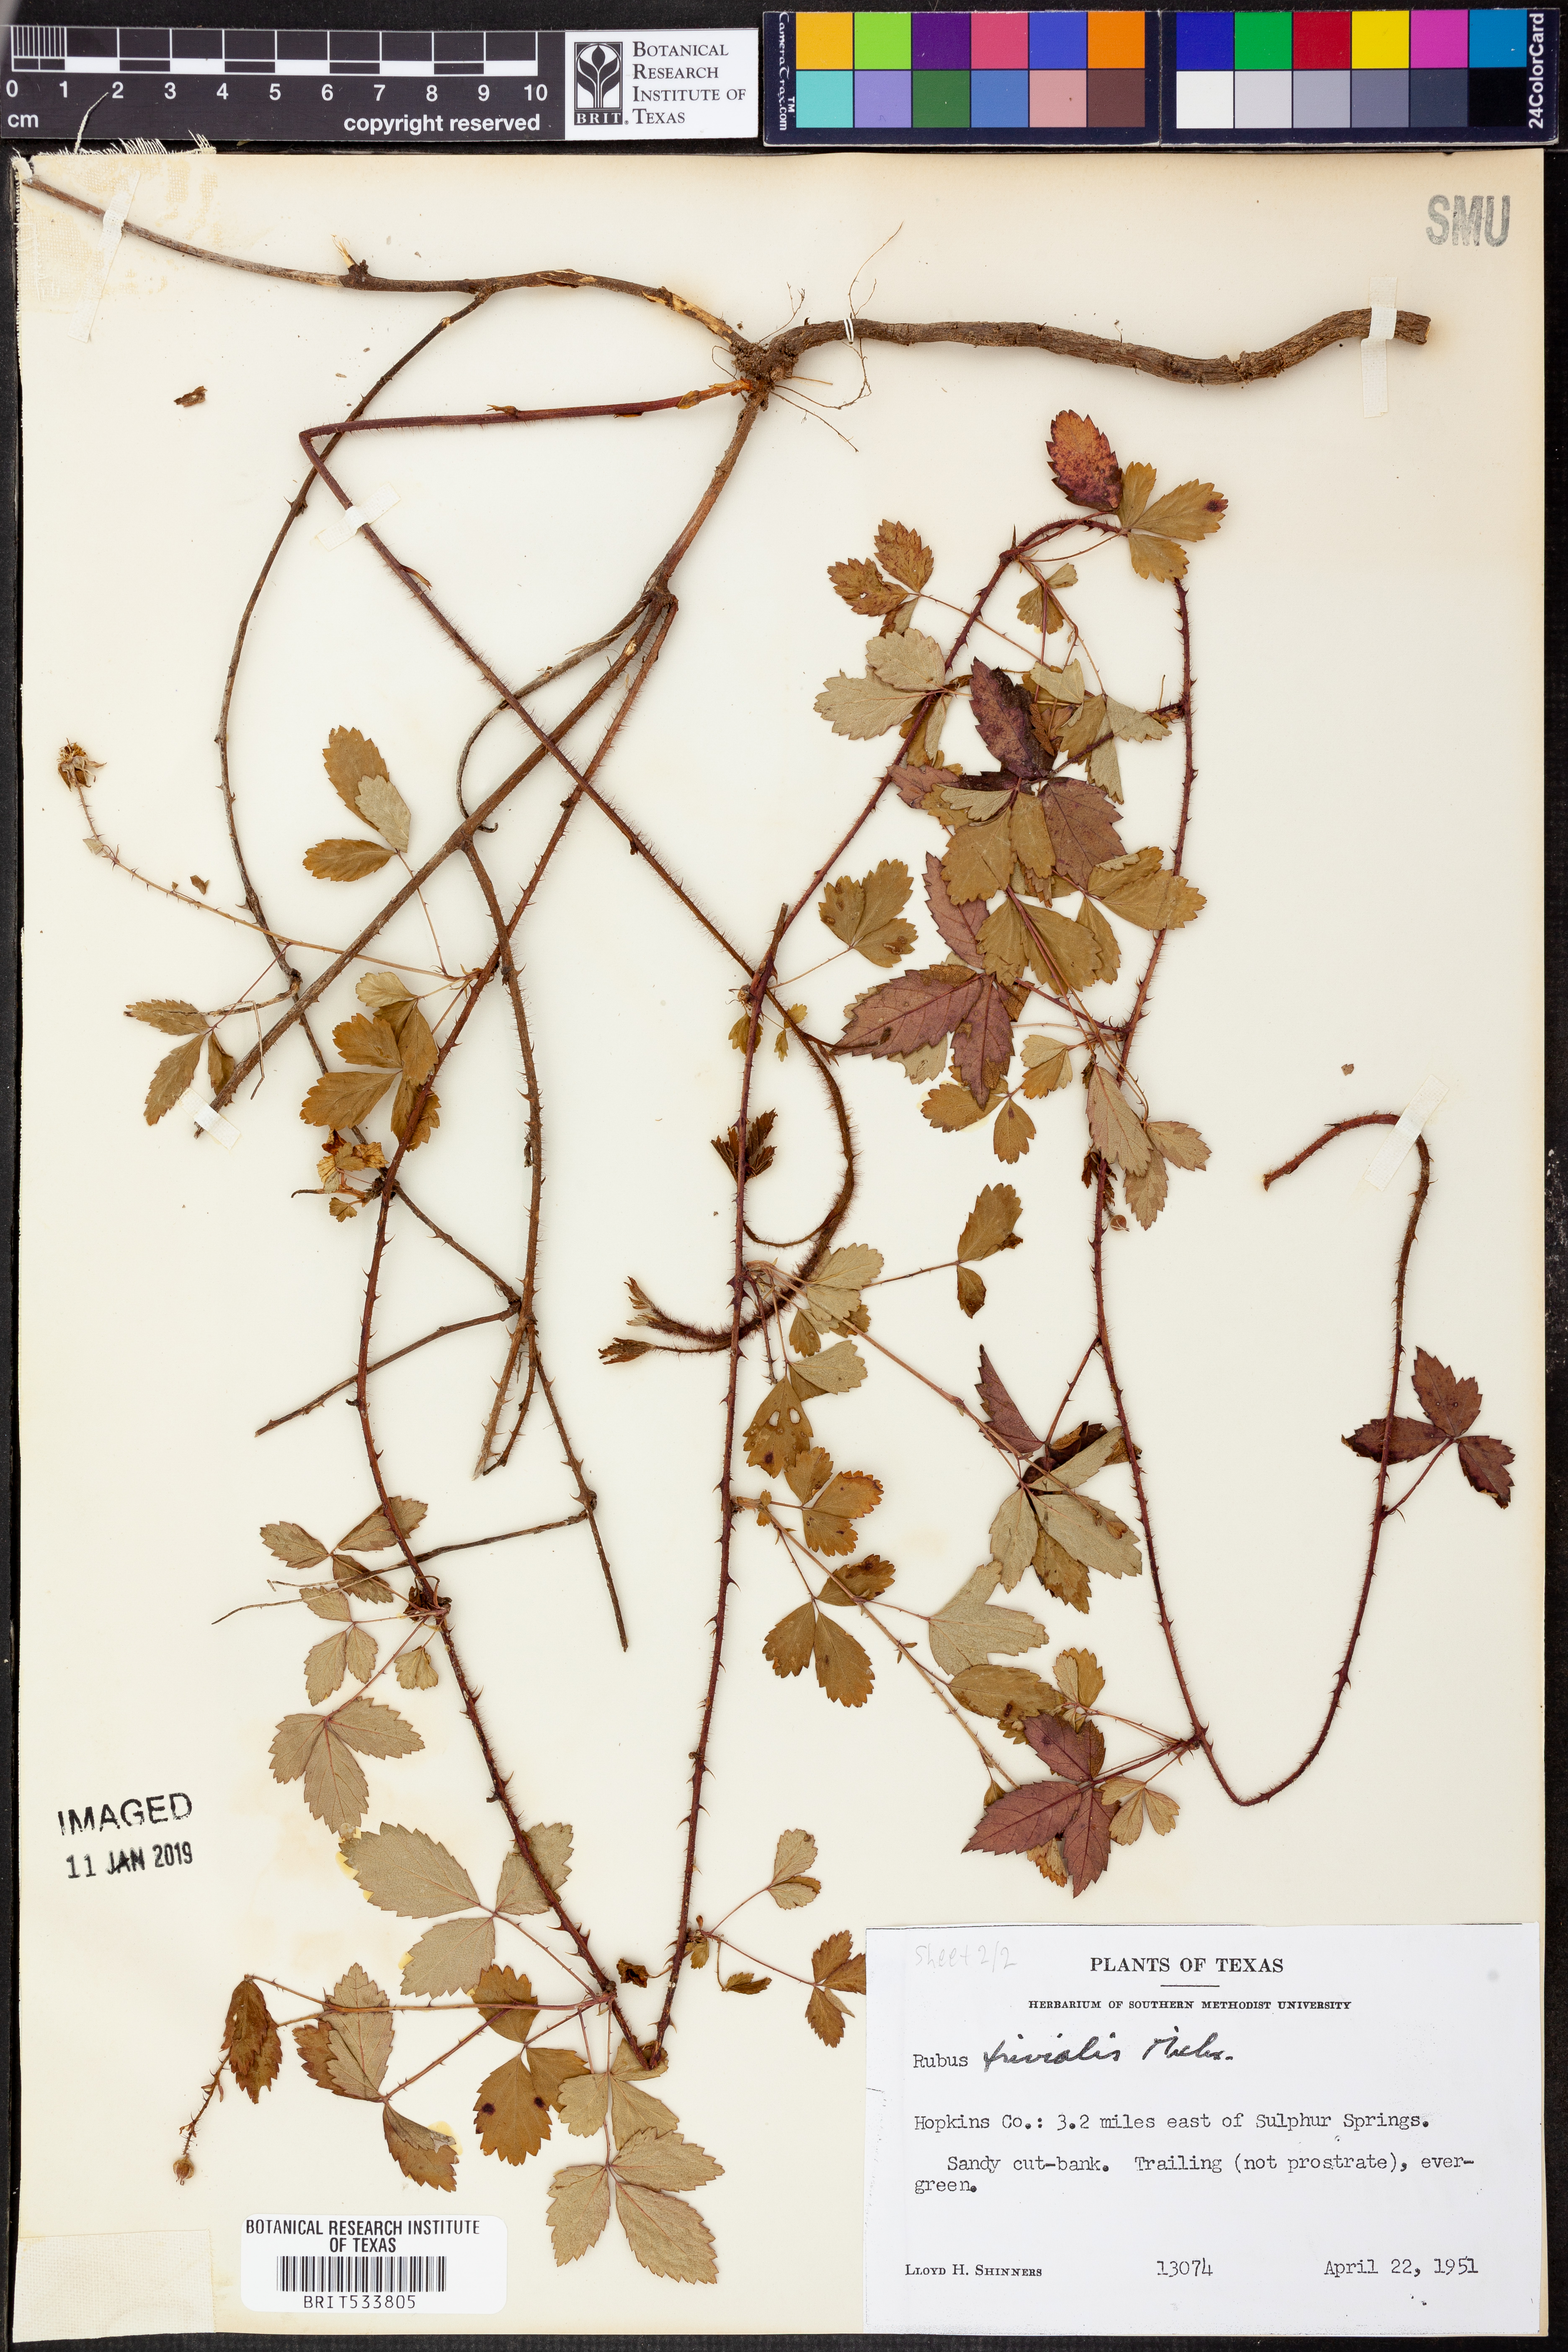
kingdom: Plantae
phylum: Tracheophyta
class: Magnoliopsida
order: Rosales
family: Rosaceae
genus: Rubus
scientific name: Rubus trivialis
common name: Southern dewberry
